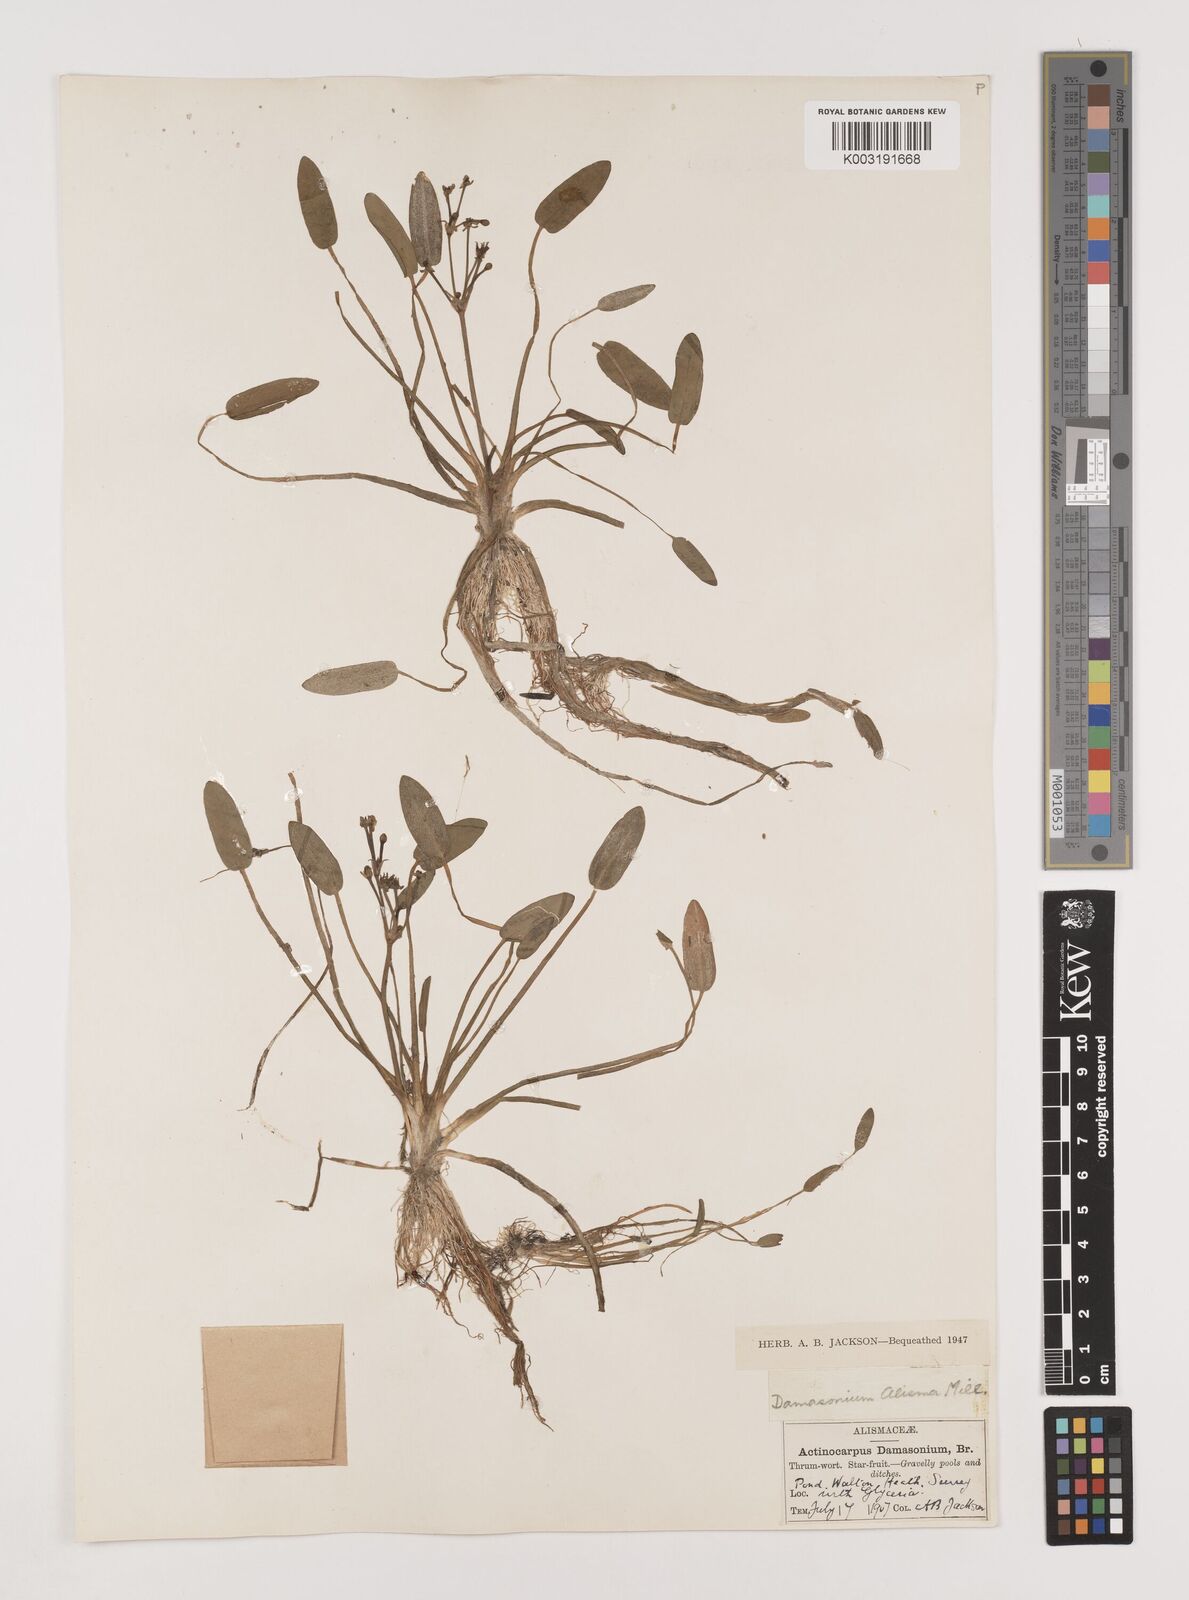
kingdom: Plantae
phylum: Tracheophyta
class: Liliopsida
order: Alismatales
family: Alismataceae
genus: Damasonium
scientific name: Damasonium alisma
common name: Starfruit
